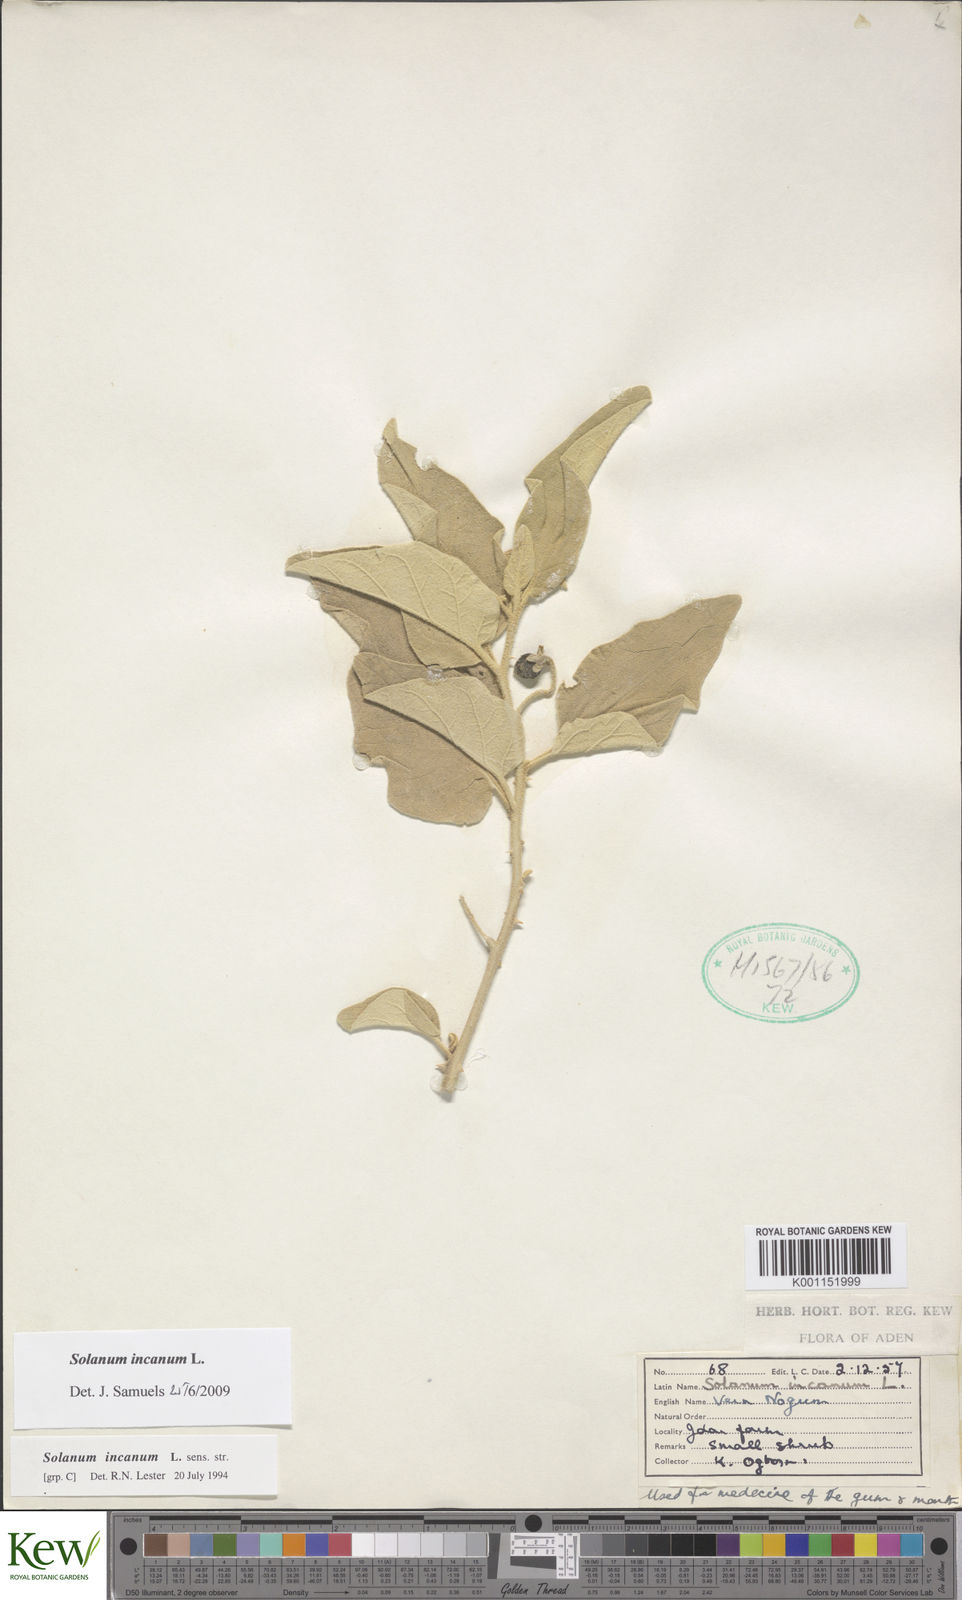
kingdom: Plantae
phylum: Tracheophyta
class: Magnoliopsida
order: Solanales
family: Solanaceae
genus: Solanum
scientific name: Solanum incanum
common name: Bitter apple
